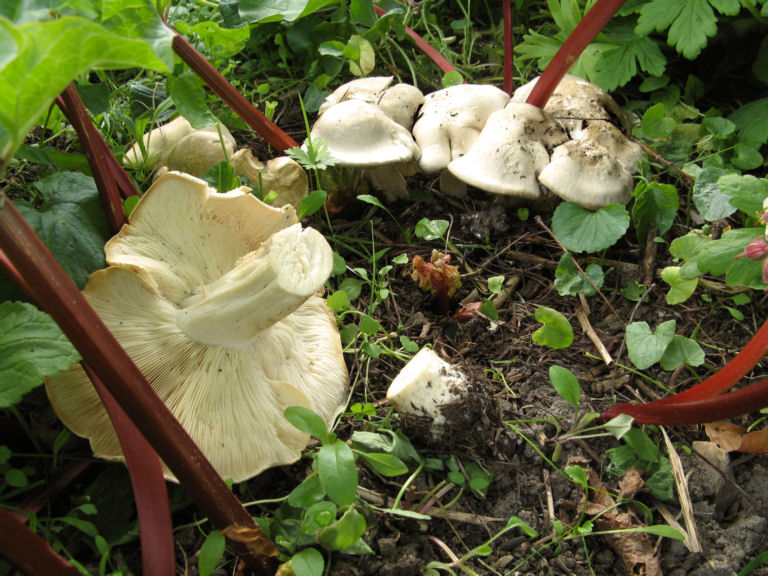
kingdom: Fungi
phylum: Basidiomycota
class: Agaricomycetes
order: Agaricales
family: Lyophyllaceae
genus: Calocybe
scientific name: Calocybe gambosa
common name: vårmusseron
